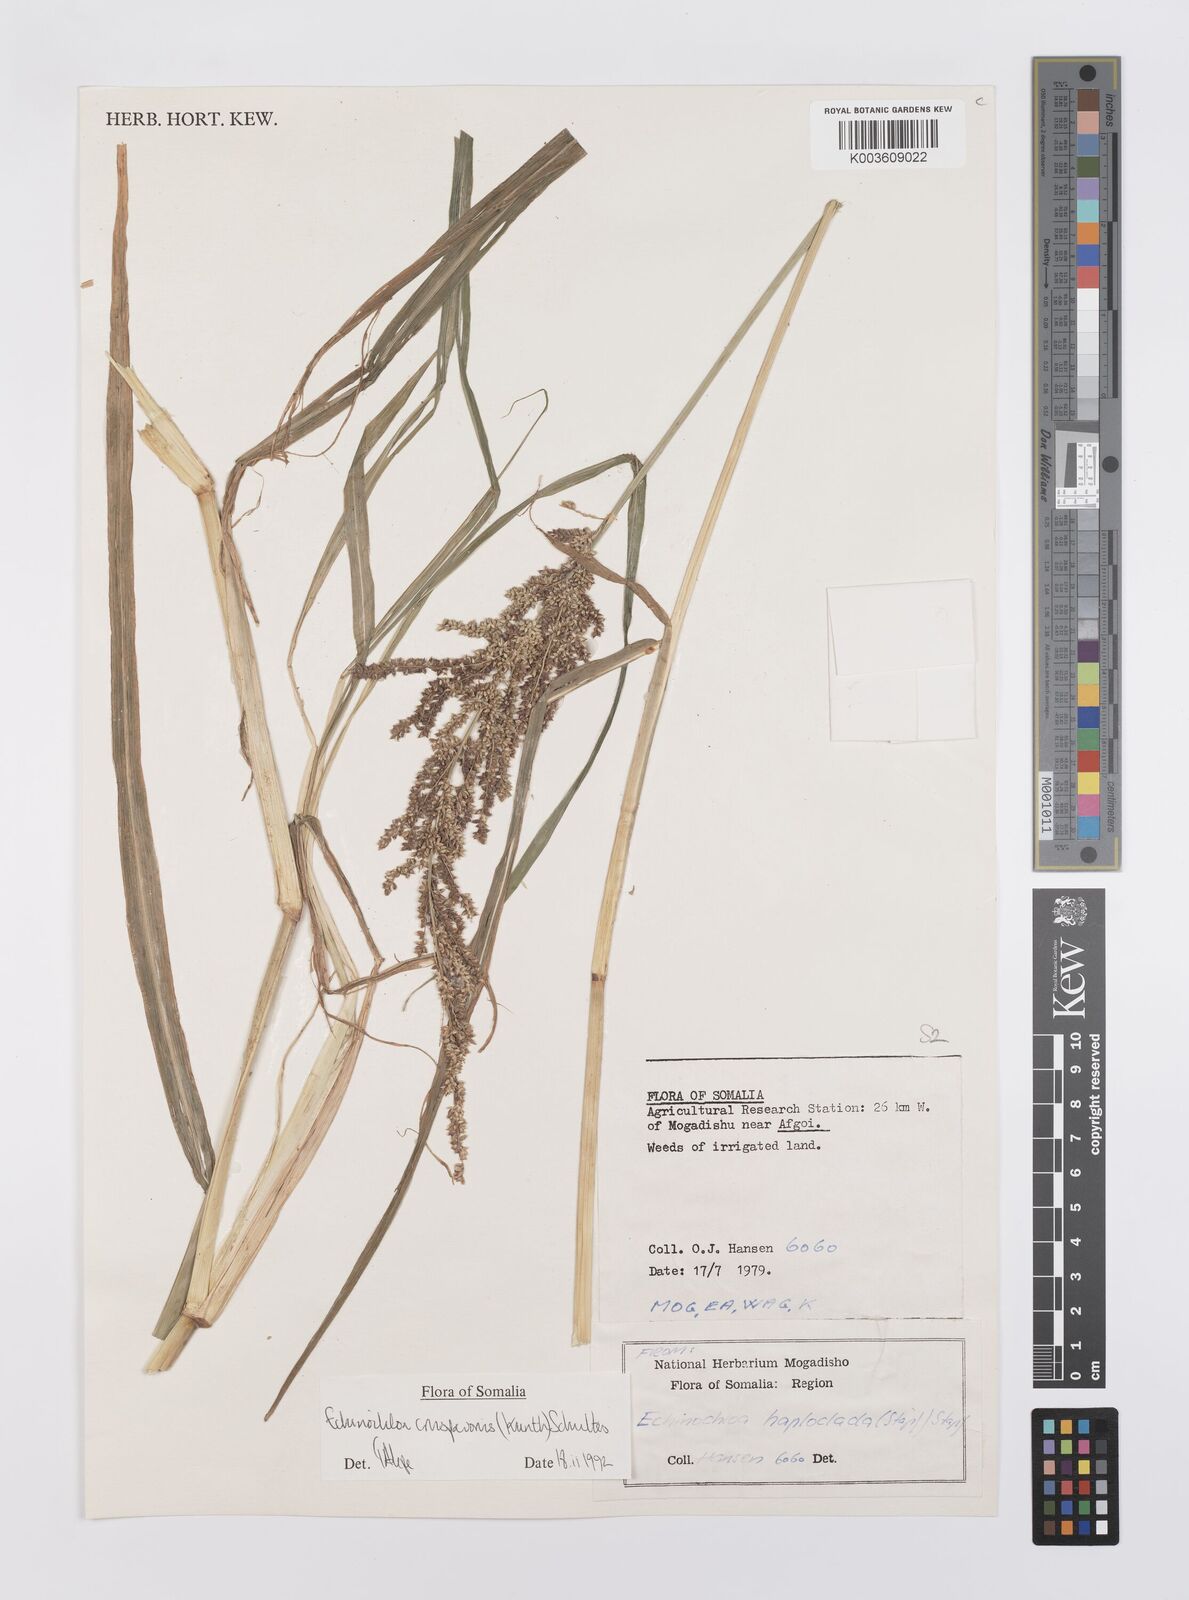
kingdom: Plantae
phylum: Tracheophyta
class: Liliopsida
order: Poales
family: Poaceae
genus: Echinochloa
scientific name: Echinochloa crus-pavonis
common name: Gulf cockspur grass
